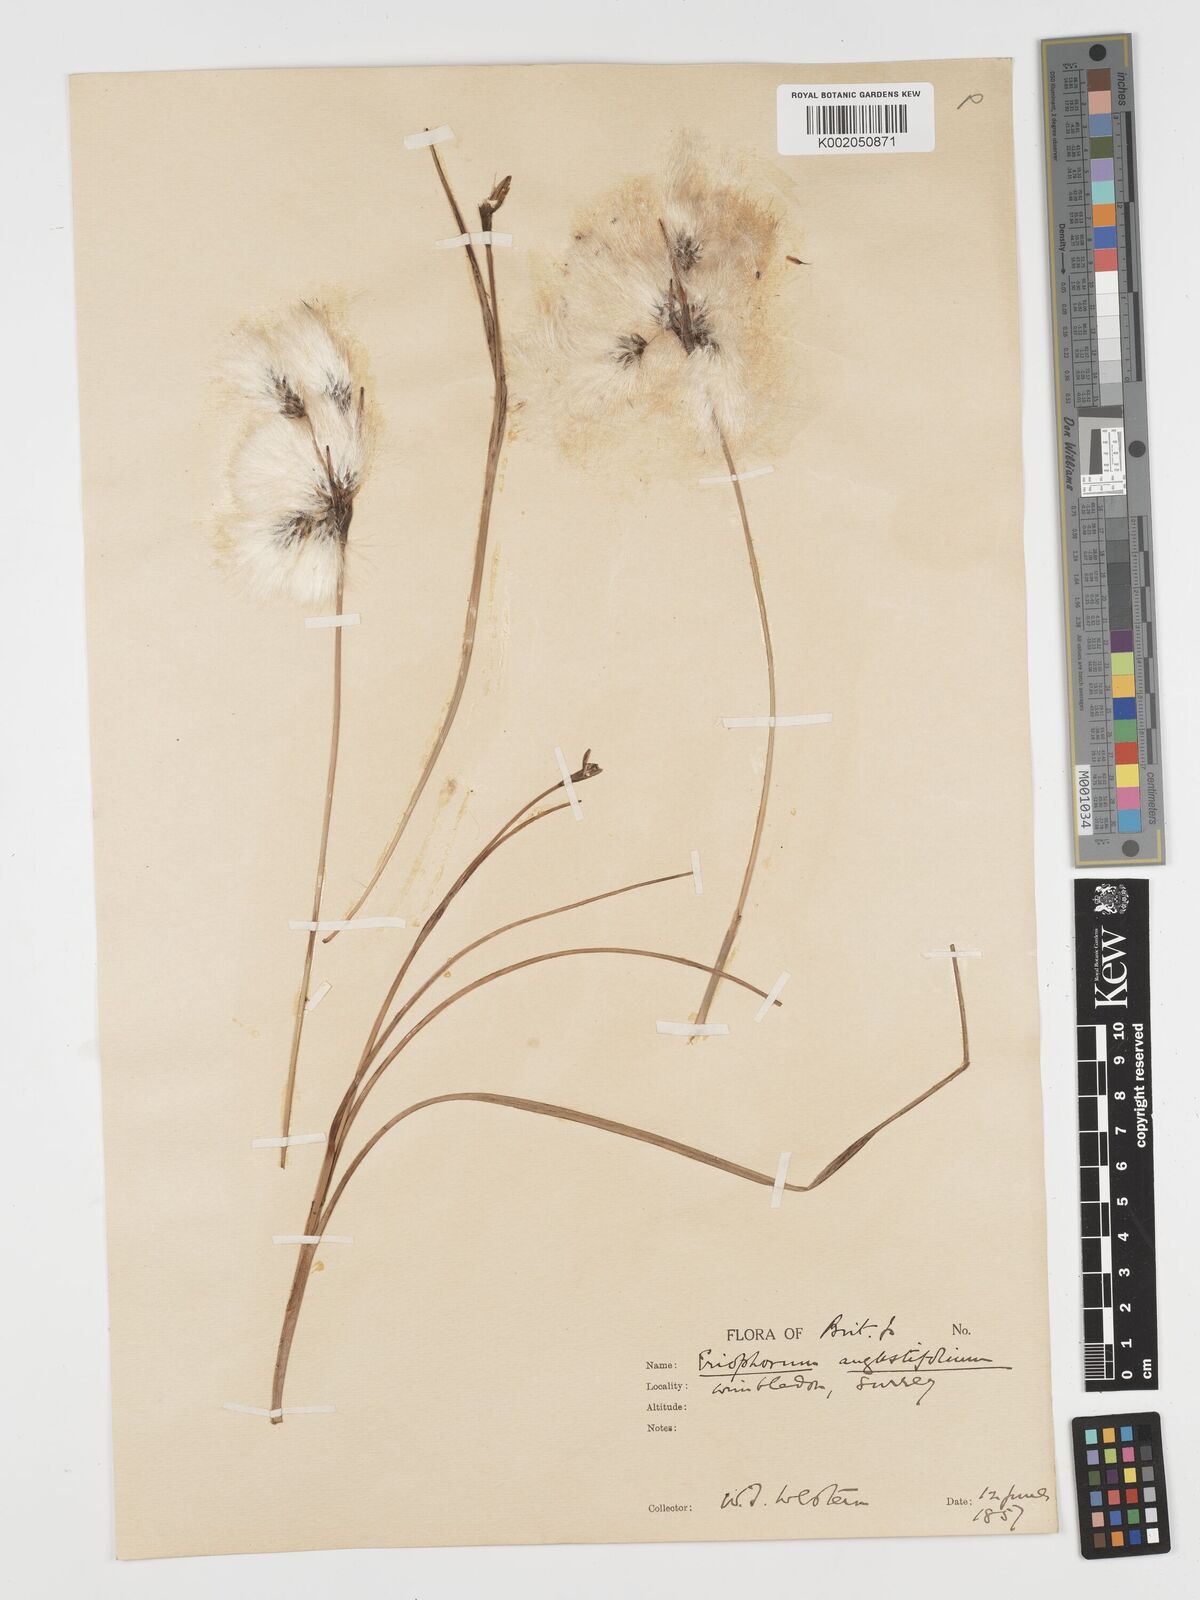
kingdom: Plantae
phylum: Tracheophyta
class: Liliopsida
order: Poales
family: Cyperaceae
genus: Eriophorum
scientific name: Eriophorum angustifolium
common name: Common cottongrass
